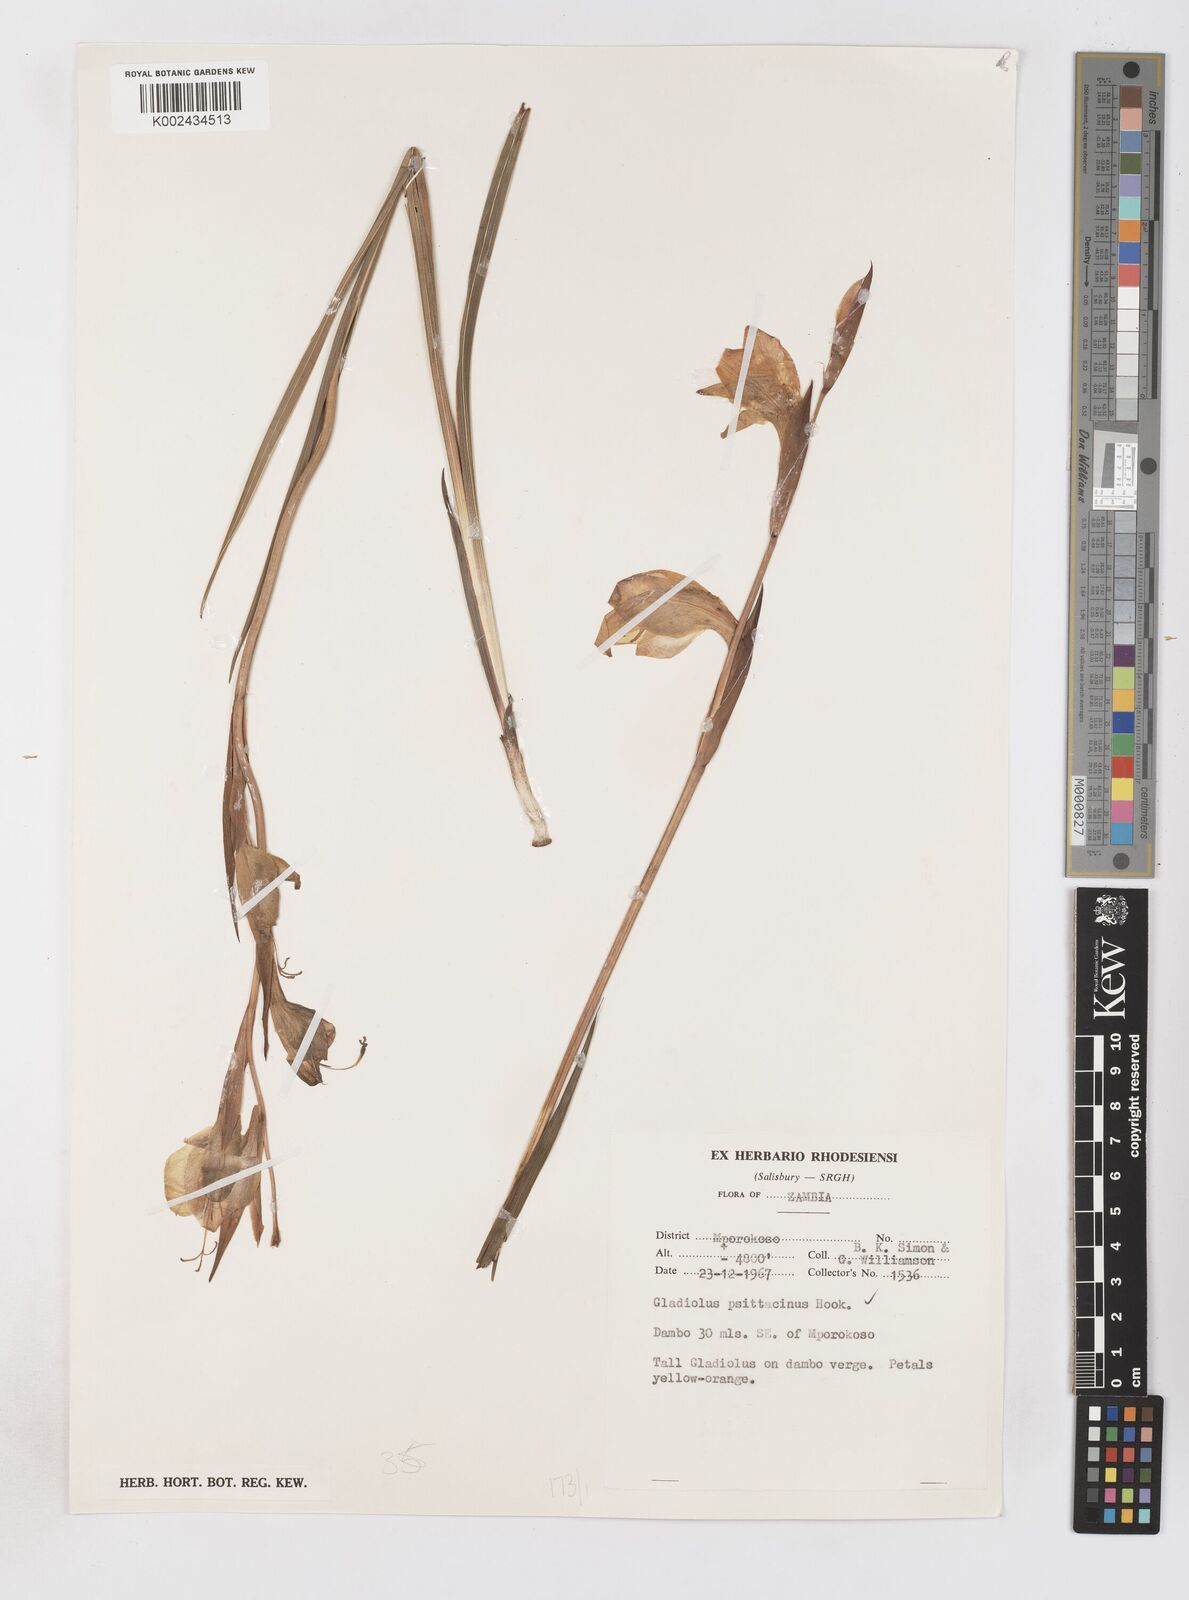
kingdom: Plantae
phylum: Tracheophyta
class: Liliopsida
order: Asparagales
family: Iridaceae
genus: Gladiolus
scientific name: Gladiolus dalenii
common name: Cornflag
